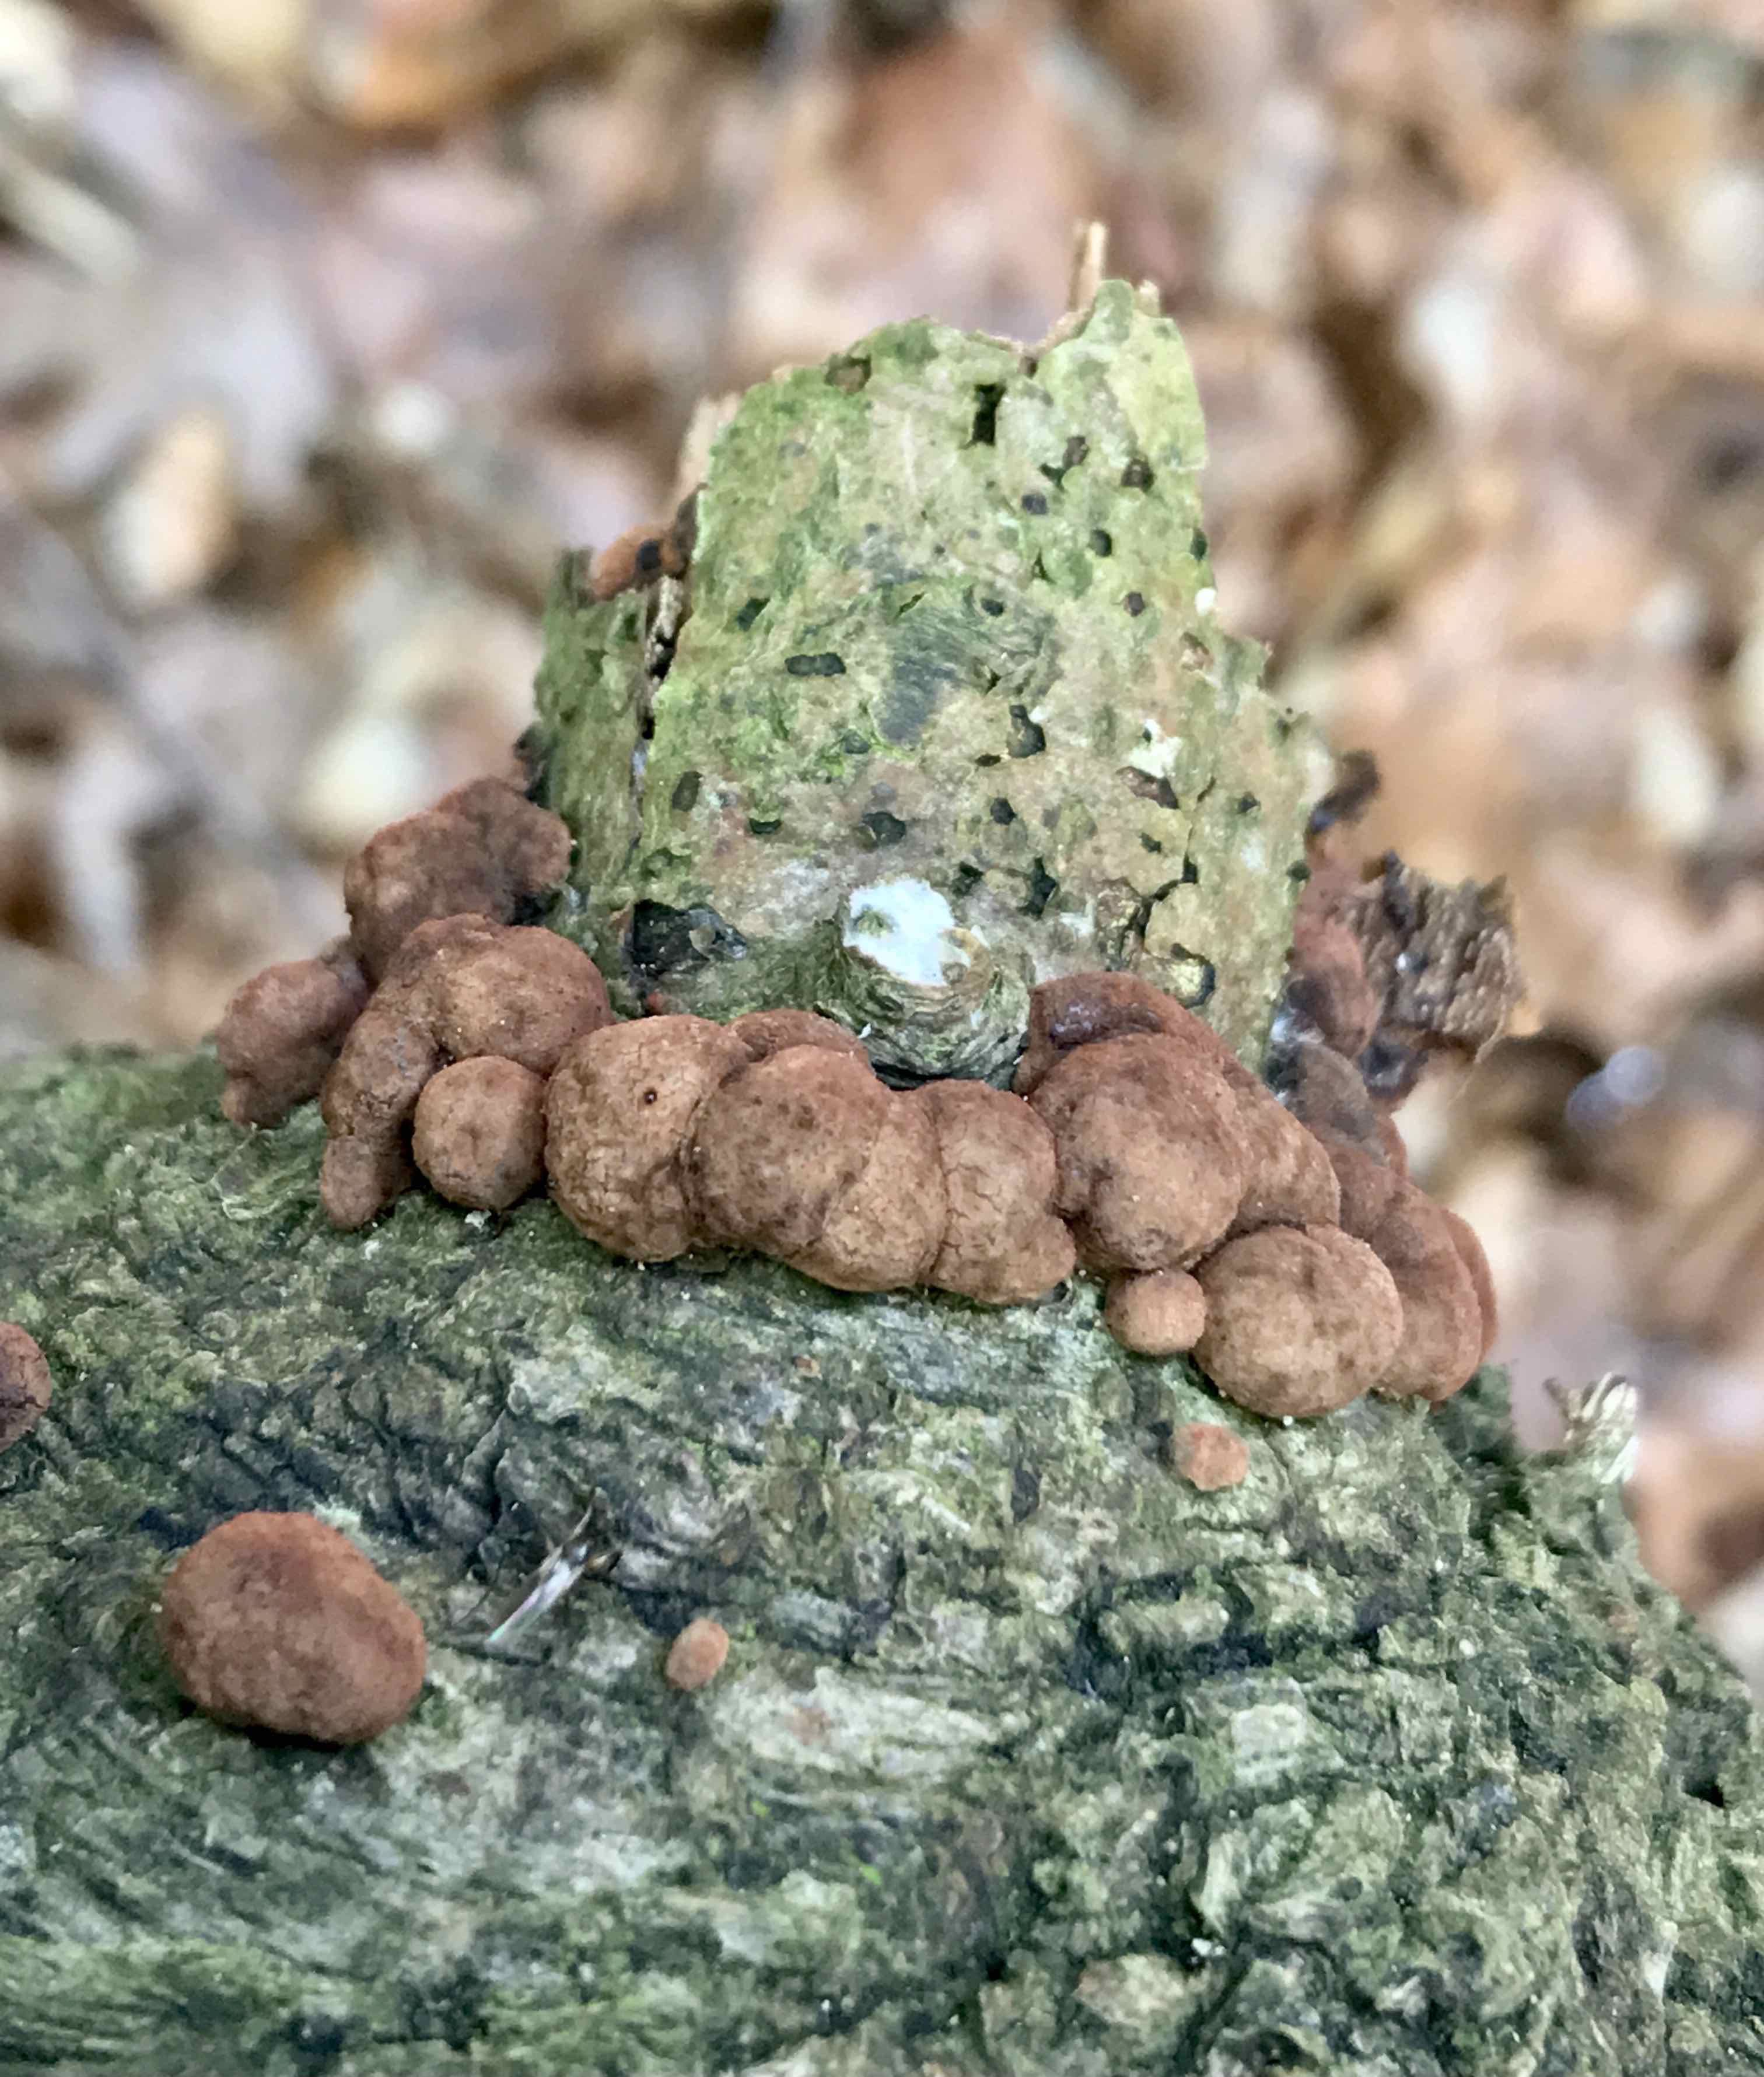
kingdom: Fungi
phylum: Ascomycota
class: Sordariomycetes
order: Xylariales
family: Hypoxylaceae
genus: Hypoxylon
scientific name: Hypoxylon fragiforme
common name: kuljordbær
